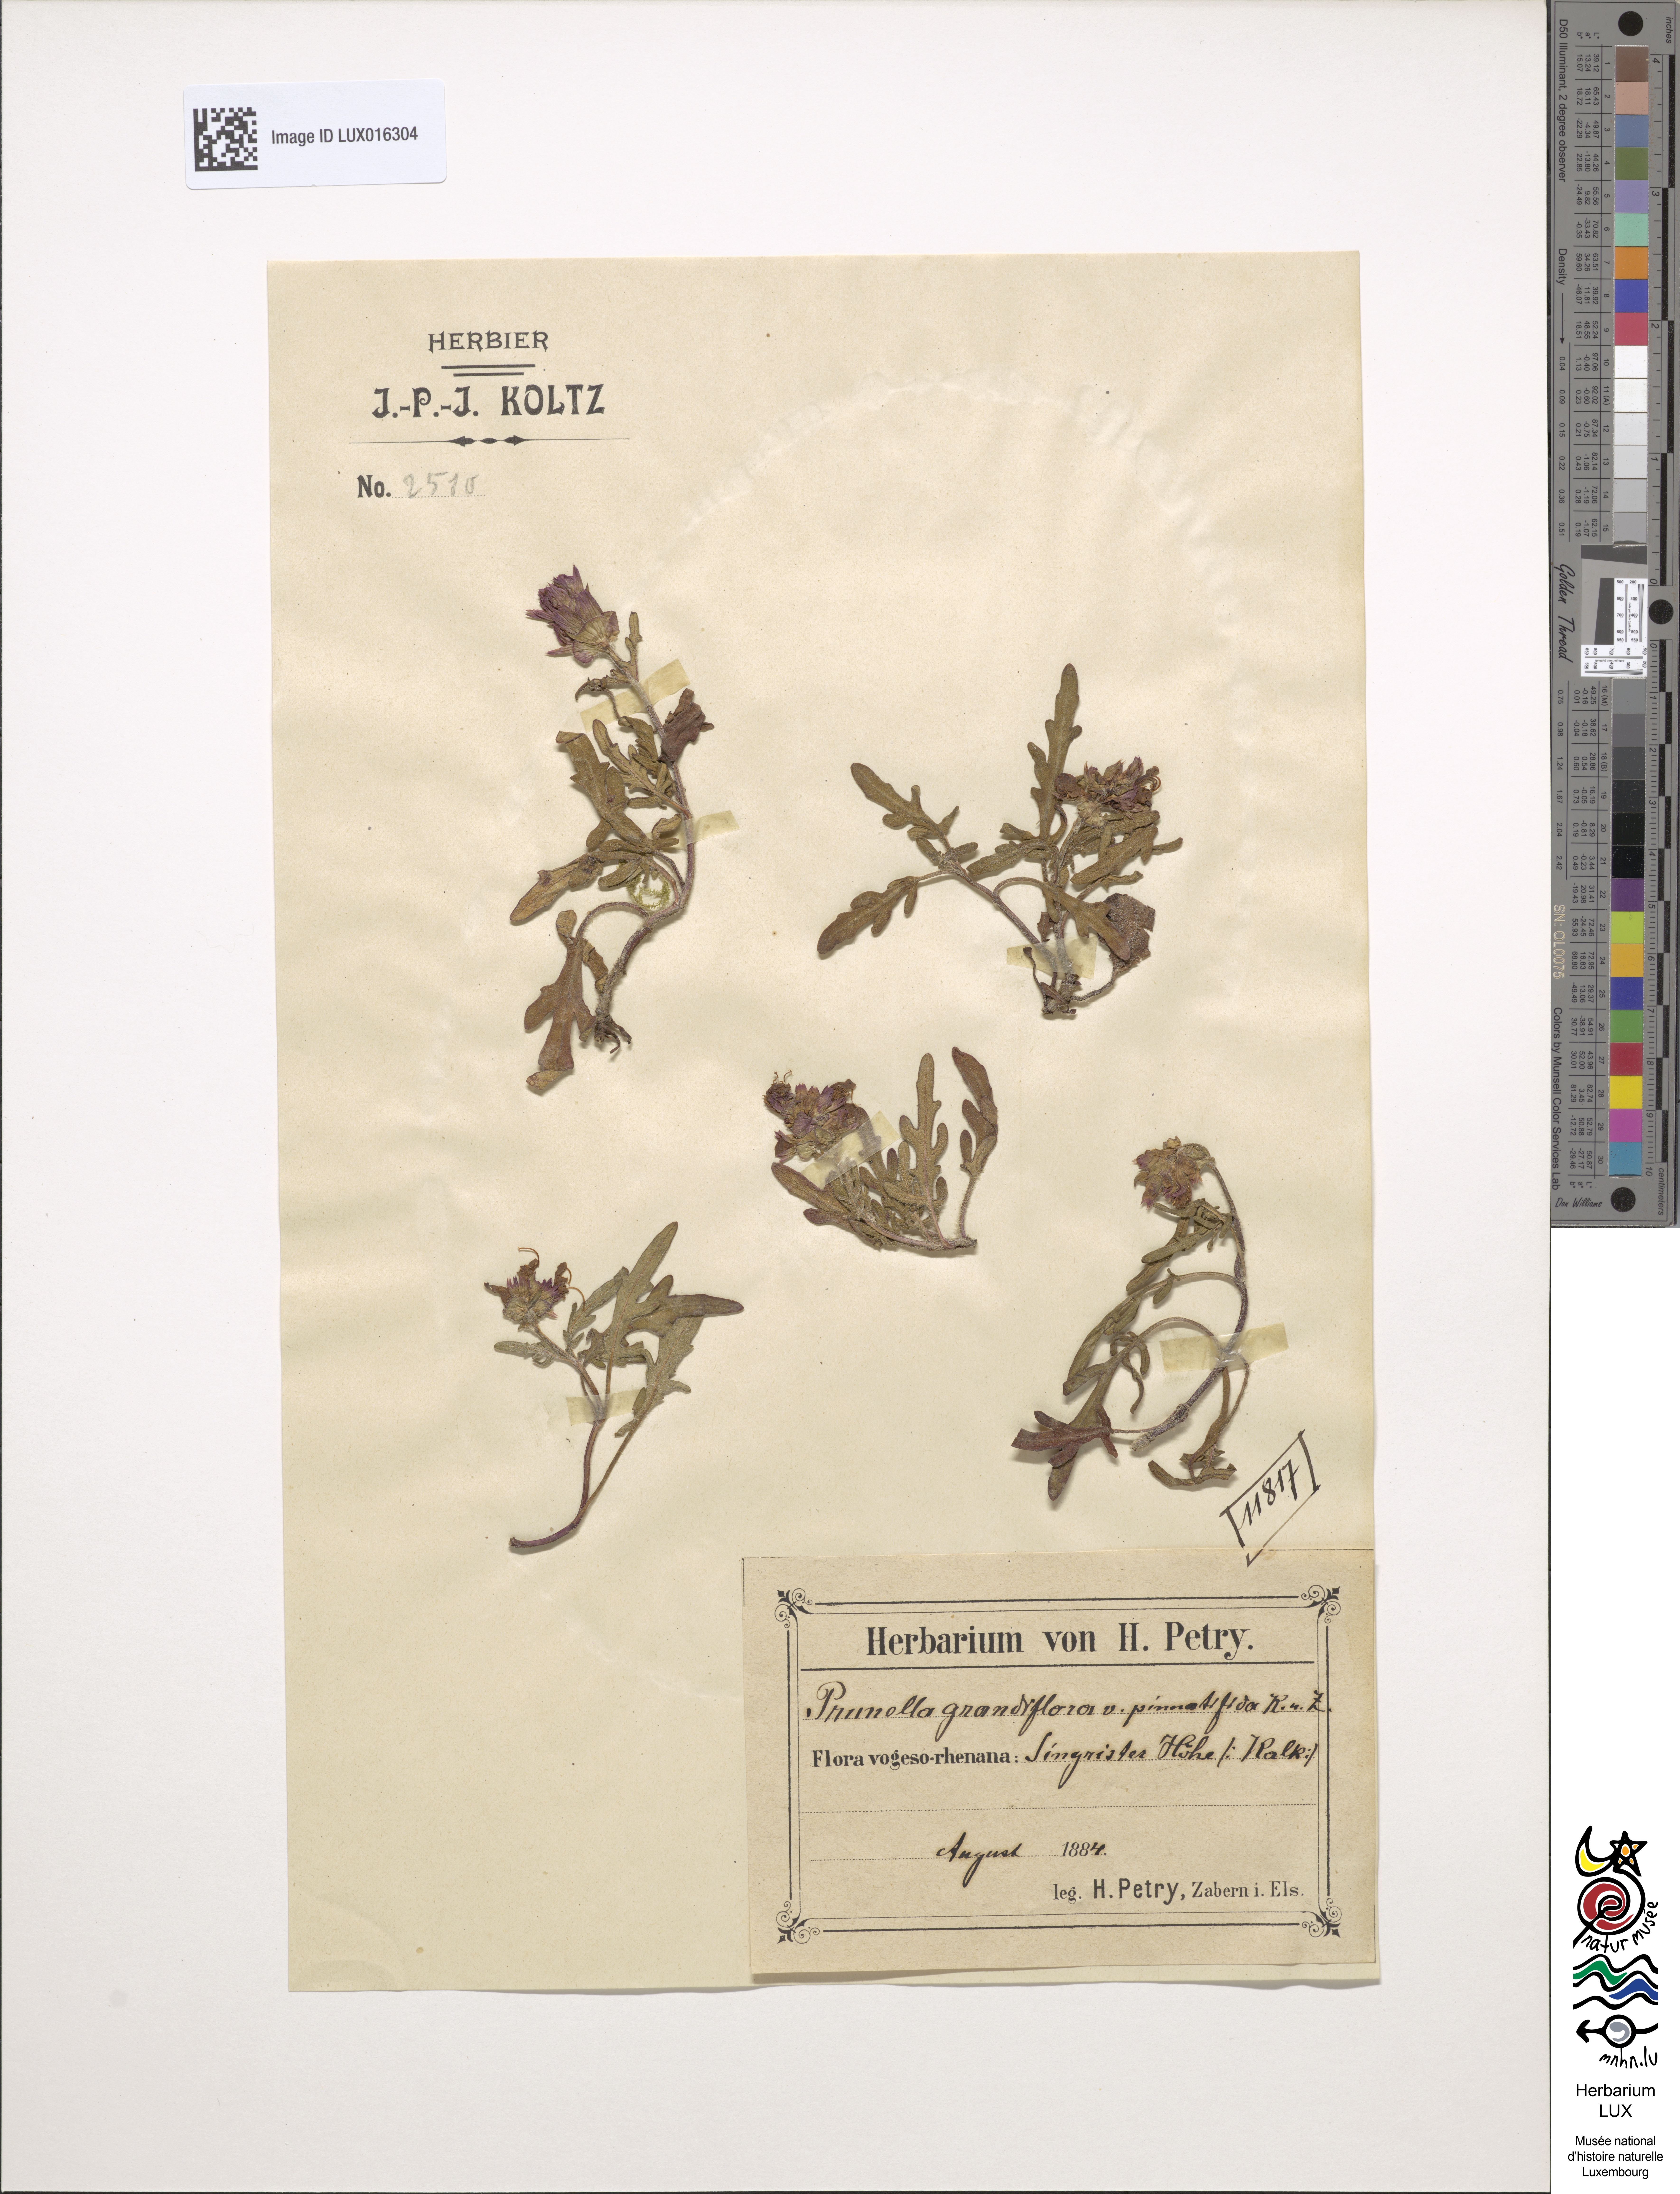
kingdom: Animalia
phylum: Chordata
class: Aves
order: Passeriformes
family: Prunellidae
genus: Prunella
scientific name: Prunella
